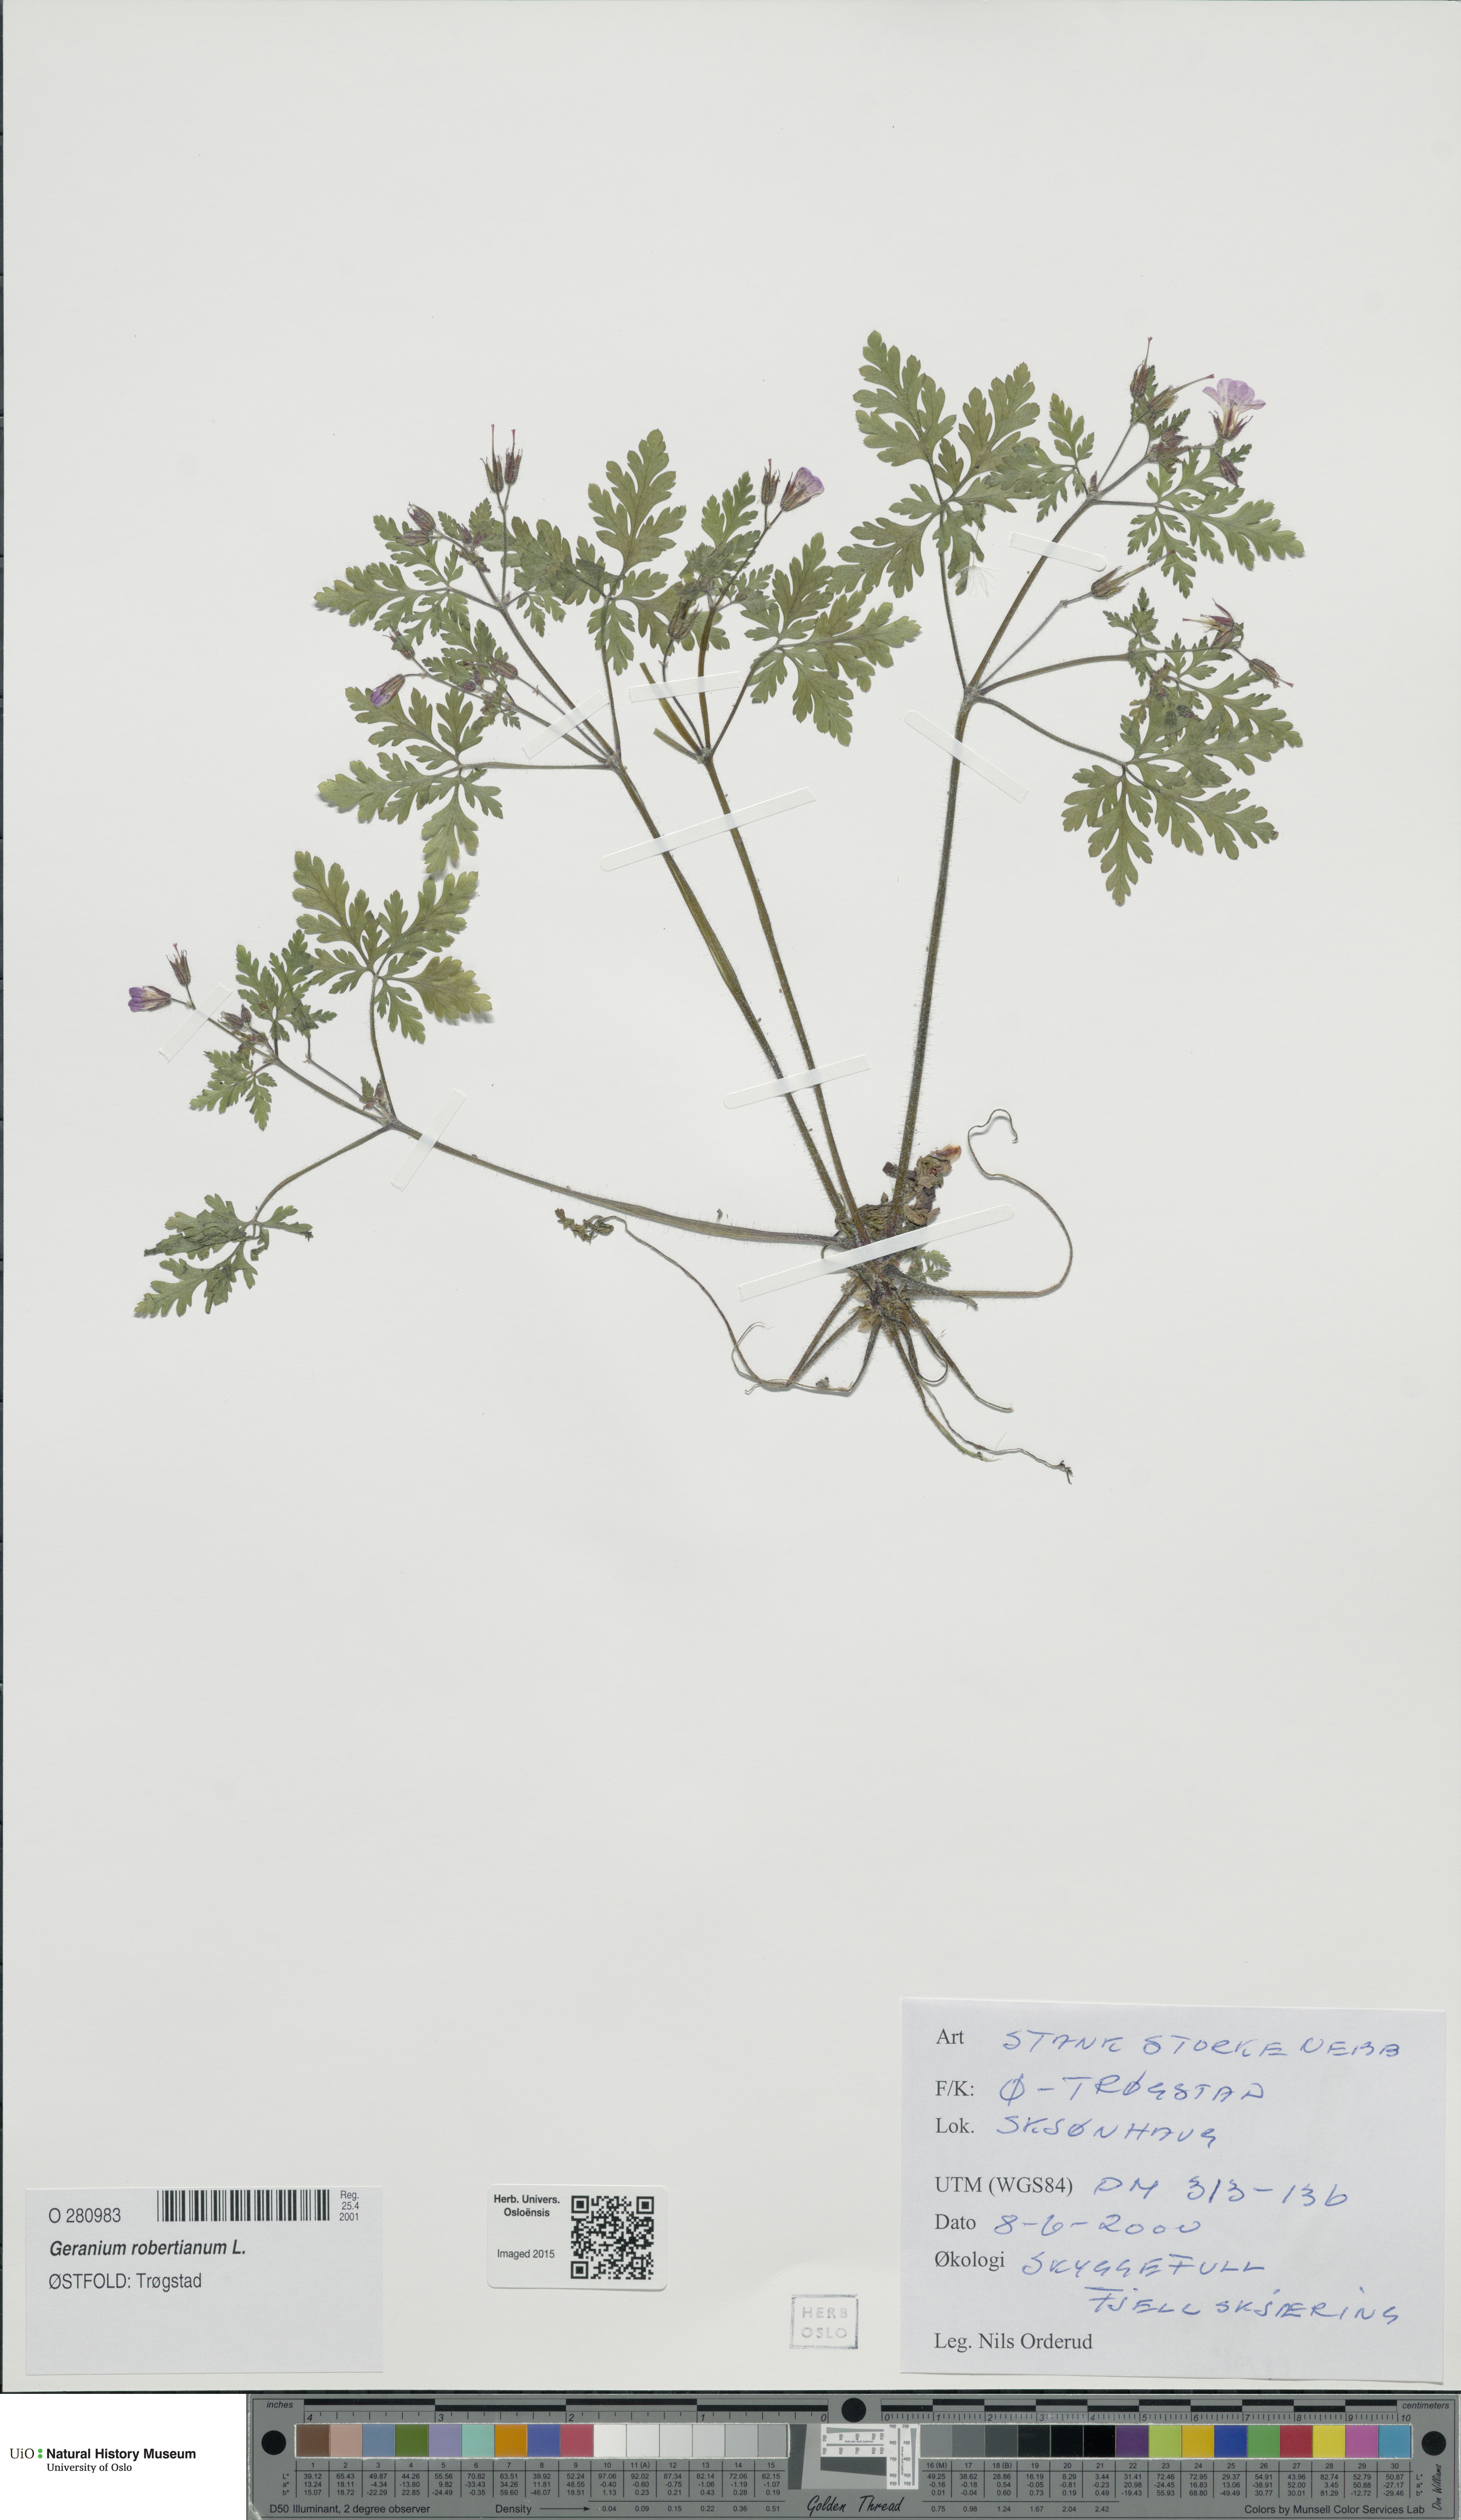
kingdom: Plantae
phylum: Tracheophyta
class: Magnoliopsida
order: Geraniales
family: Geraniaceae
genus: Geranium
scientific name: Geranium robertianum
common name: Herb-robert
